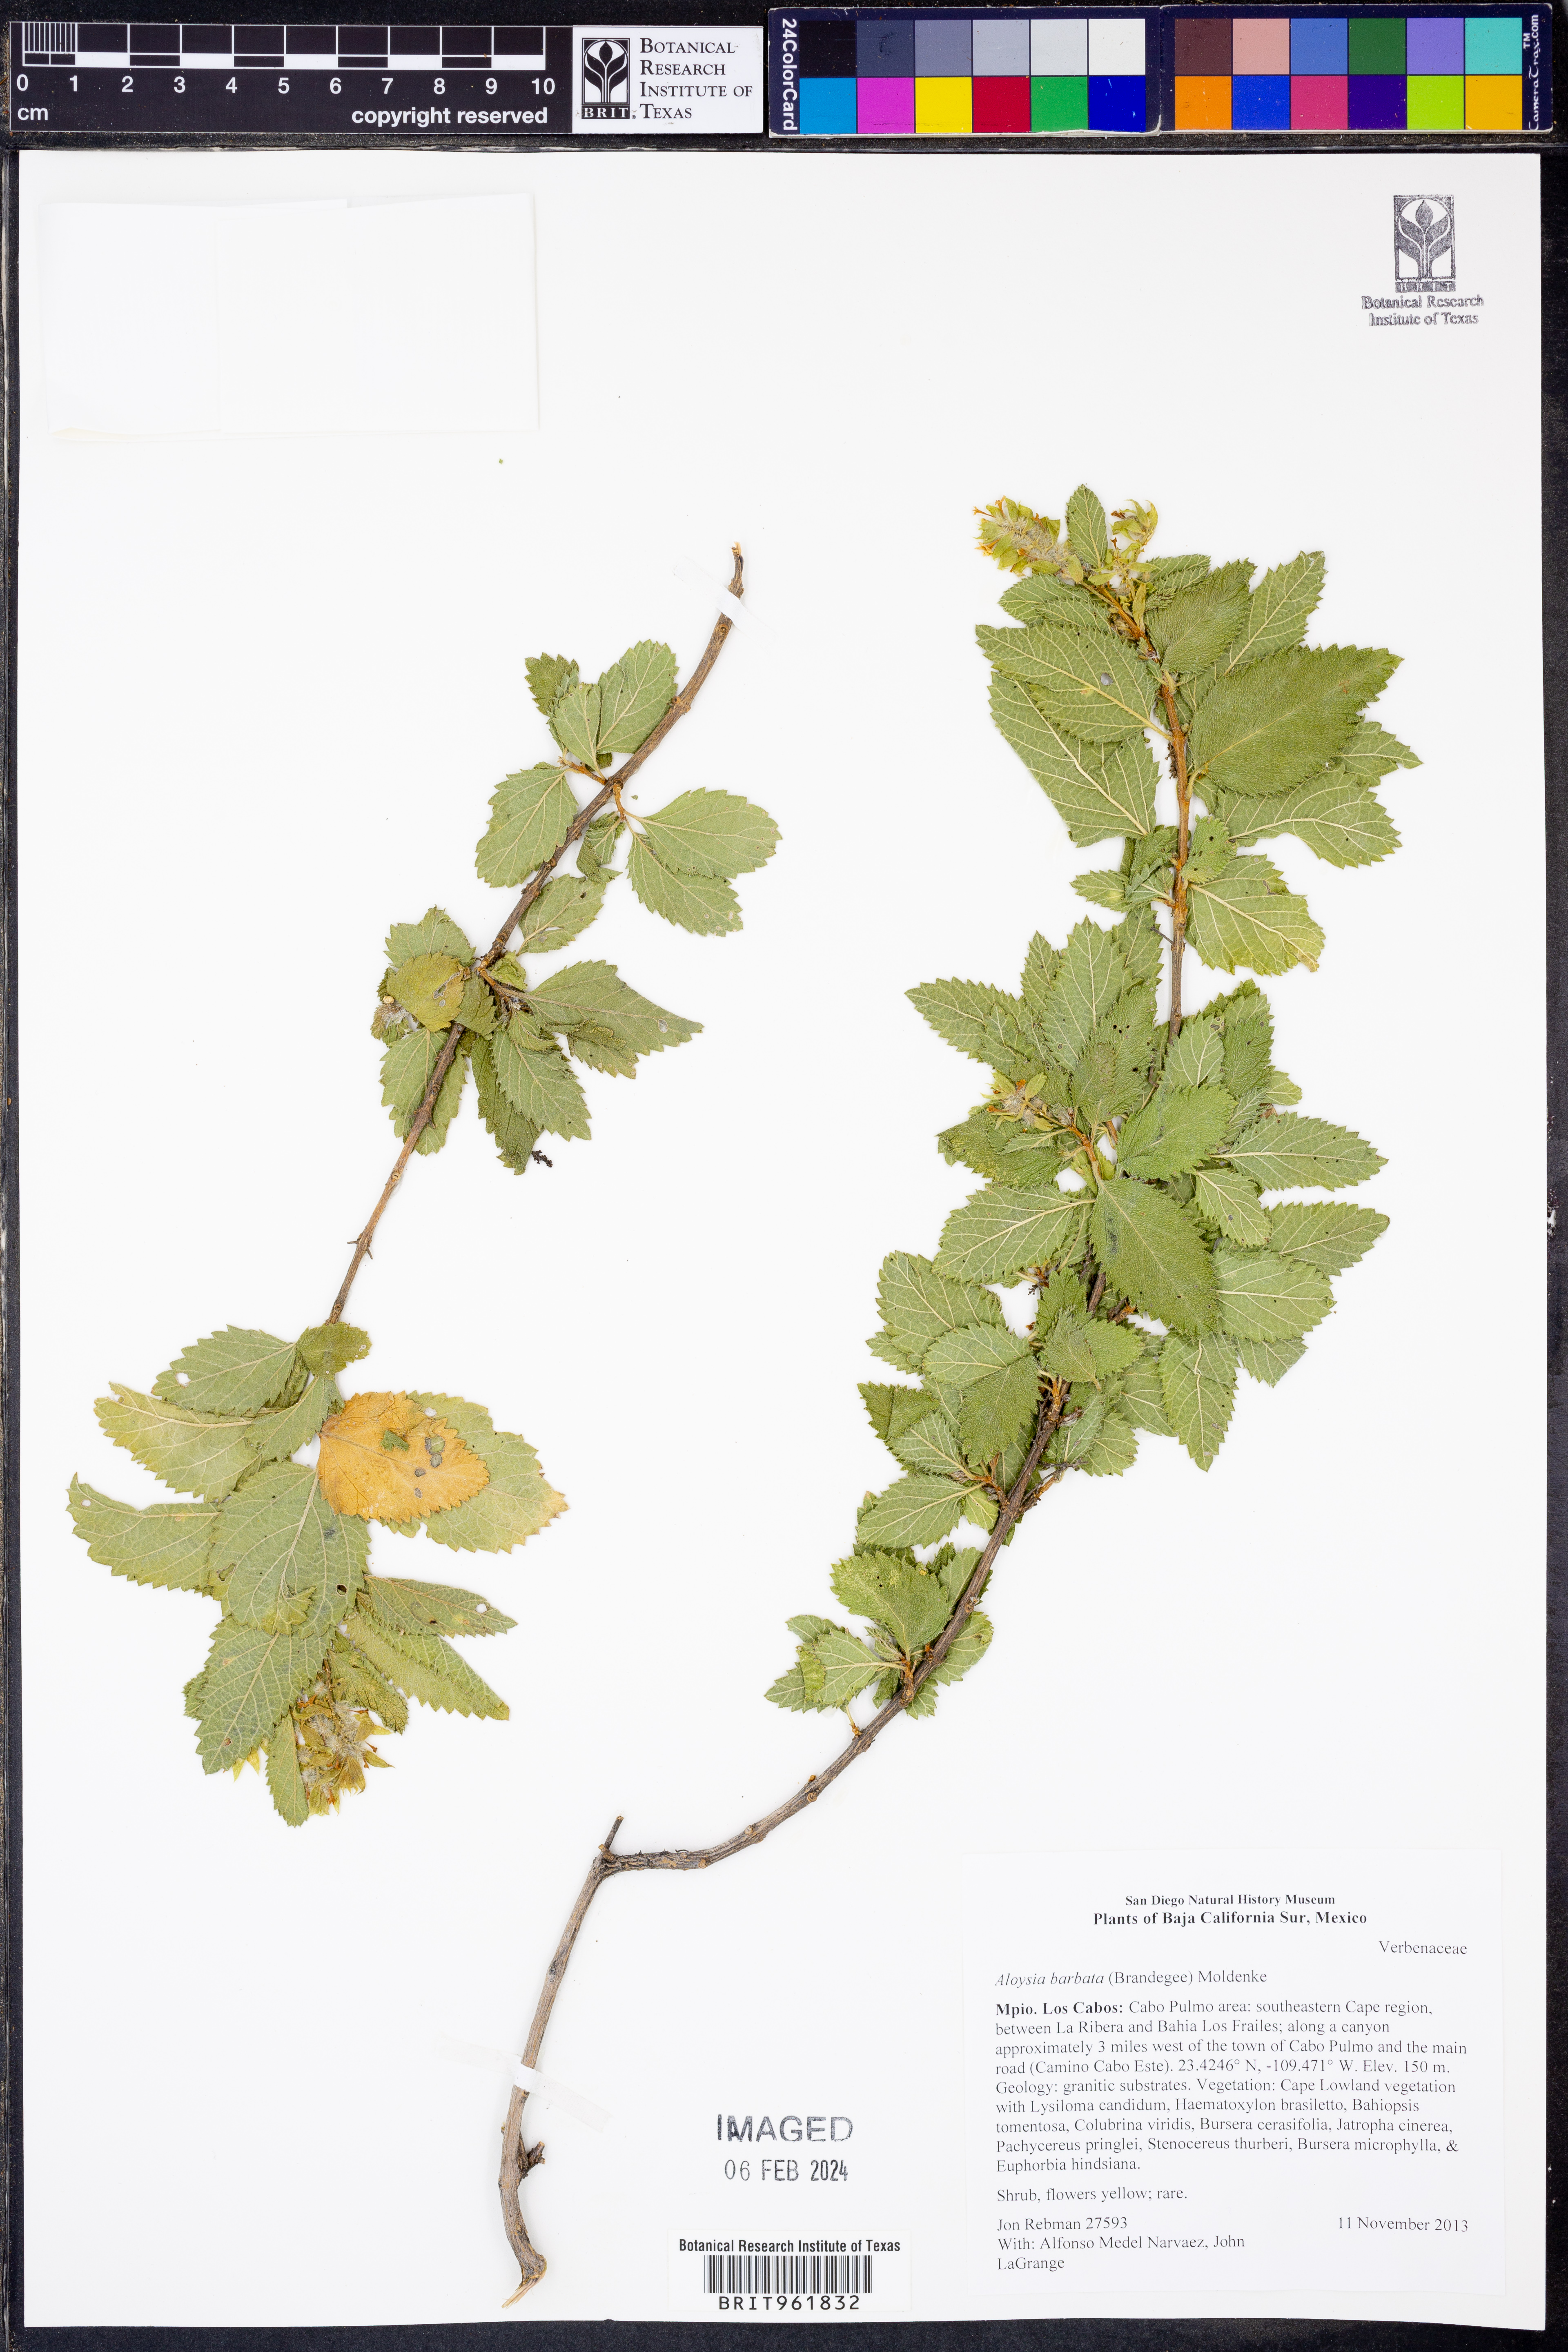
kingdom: Plantae
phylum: Tracheophyta
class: Magnoliopsida
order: Lamiales
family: Verbenaceae
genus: Aloysia
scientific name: Aloysia
